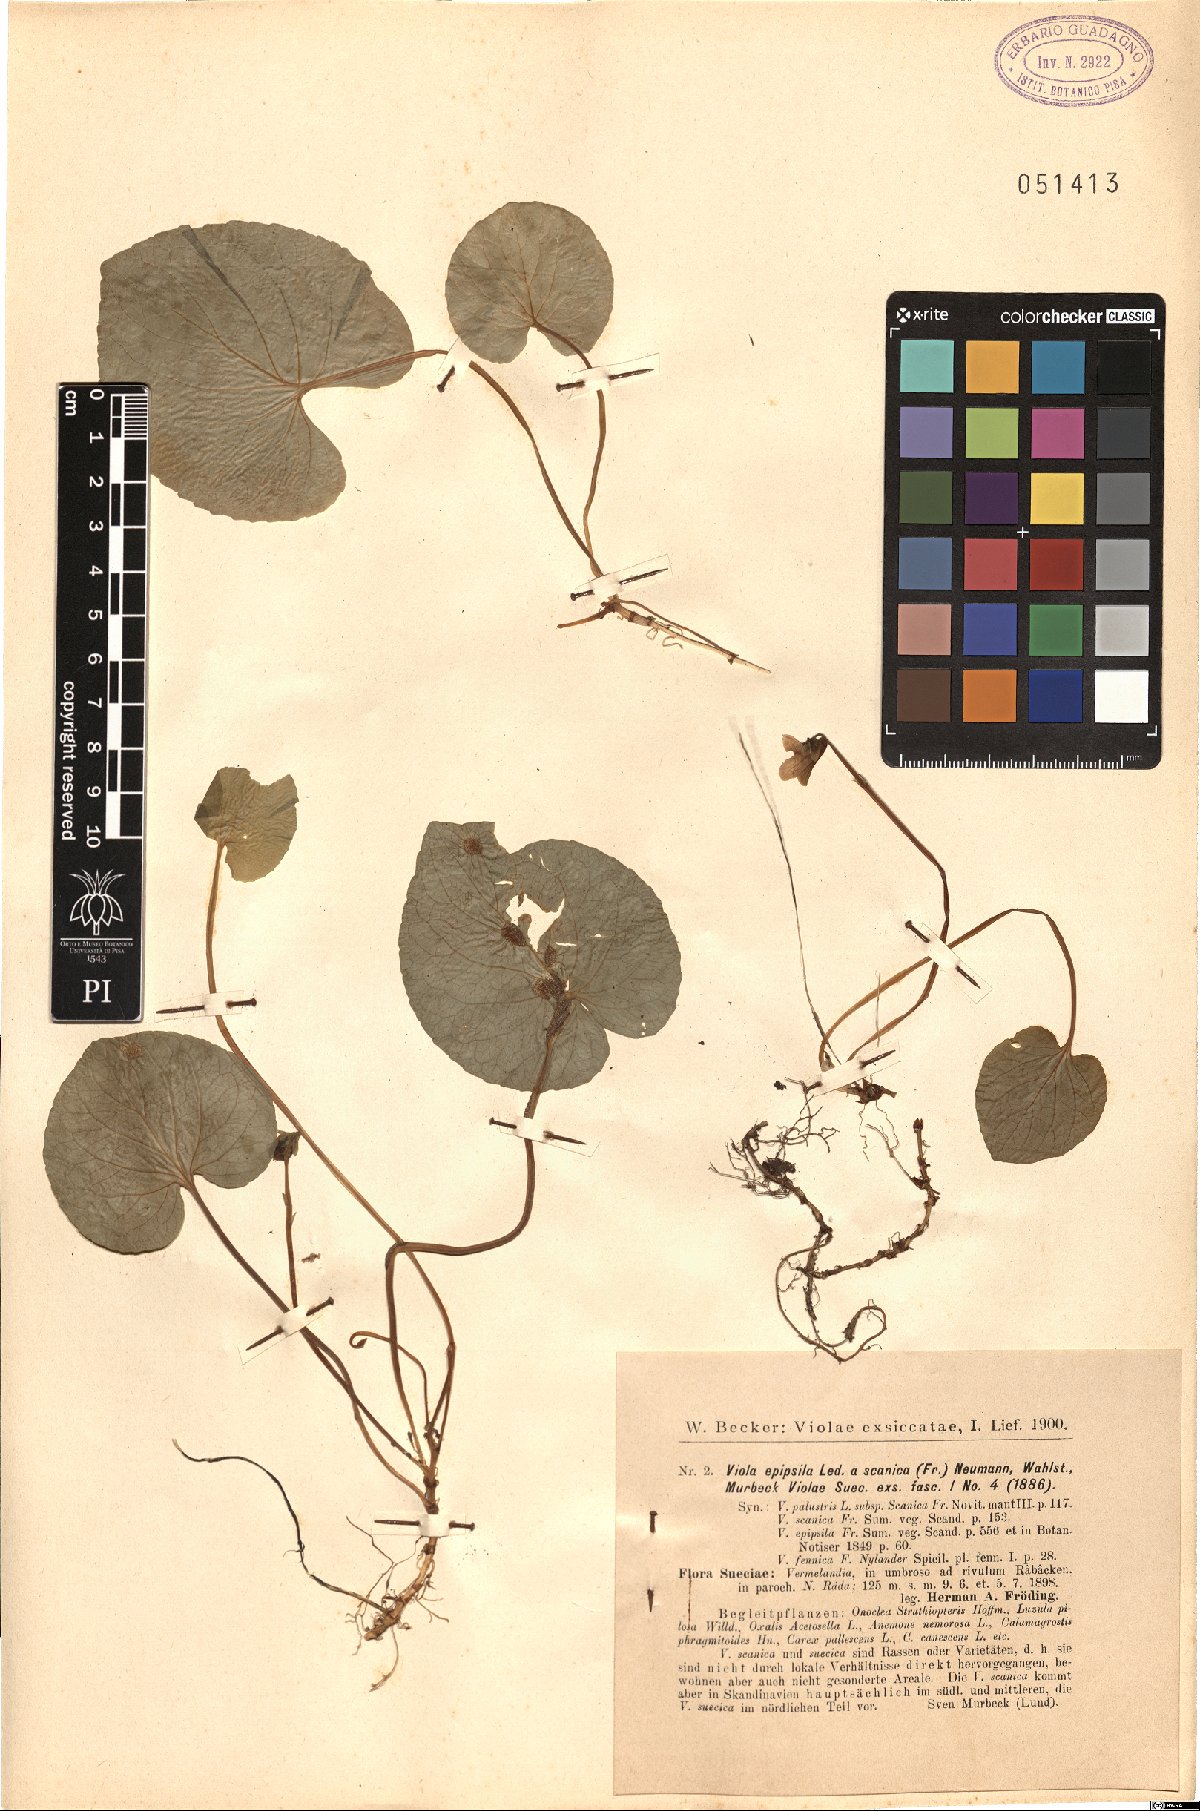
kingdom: Plantae
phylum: Tracheophyta
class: Magnoliopsida
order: Malpighiales
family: Violaceae
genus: Viola
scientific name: Viola epipsila
